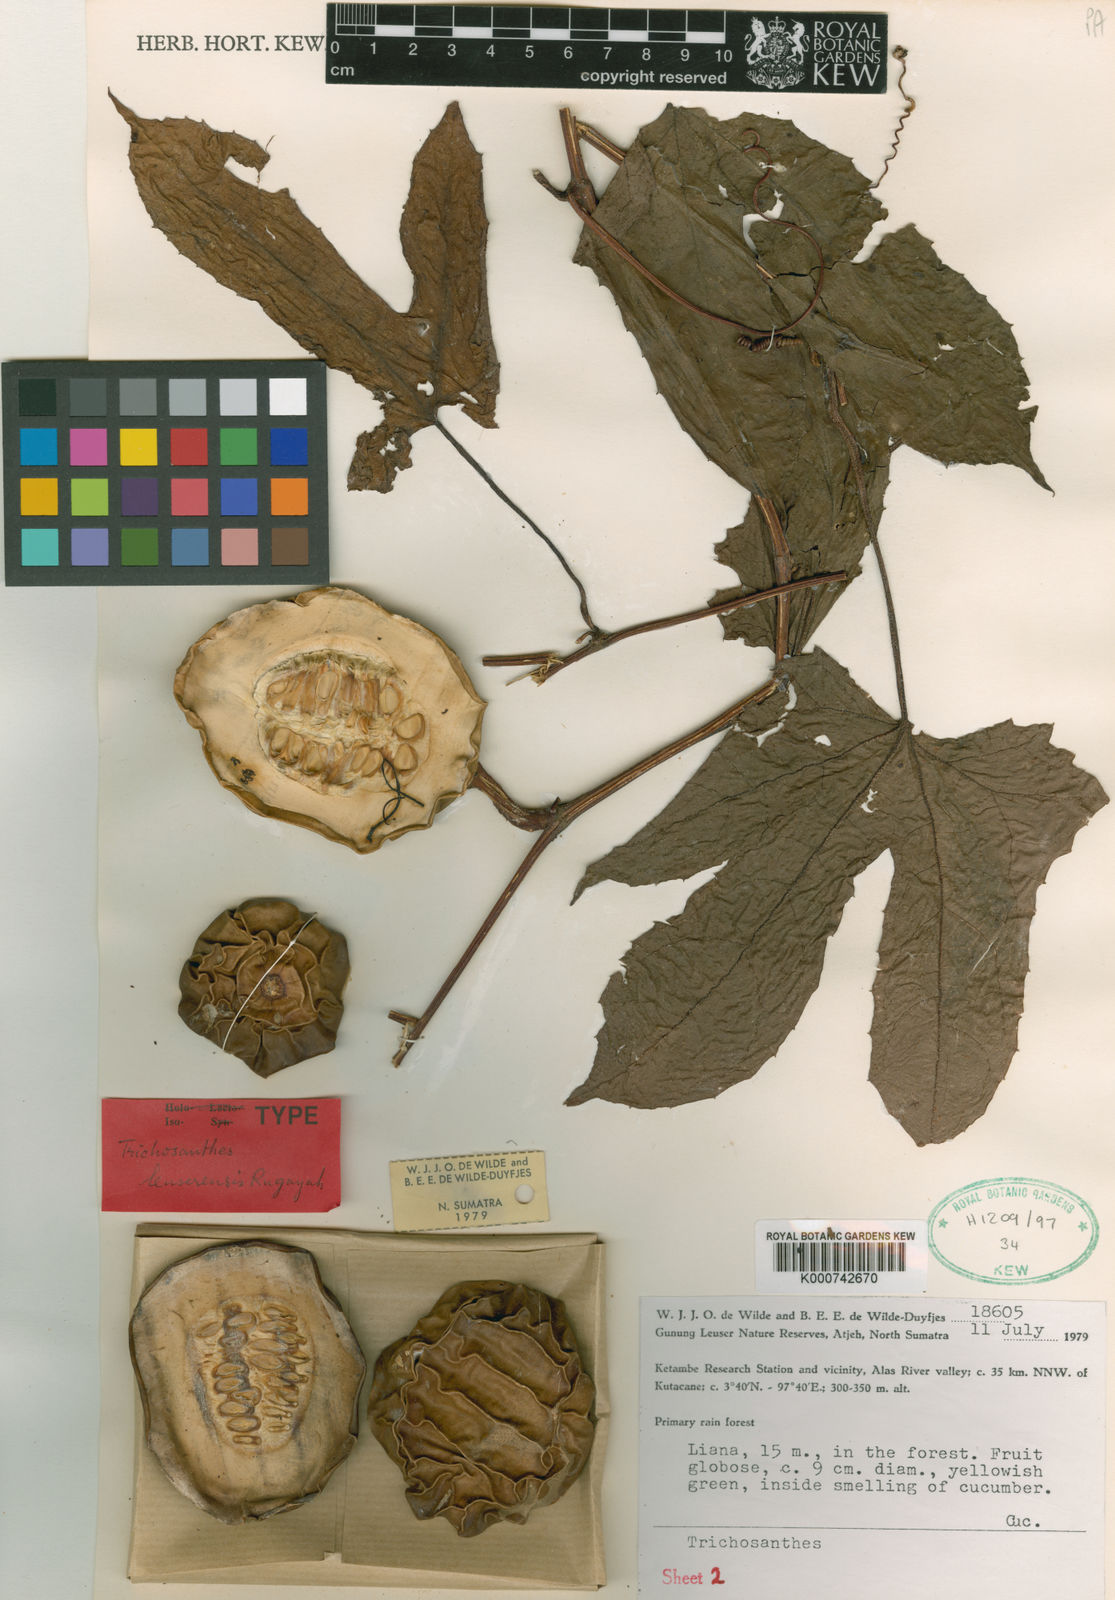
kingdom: Plantae
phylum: Tracheophyta
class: Magnoliopsida
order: Cucurbitales
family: Cucurbitaceae
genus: Trichosanthes
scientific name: Trichosanthes leuserensis
